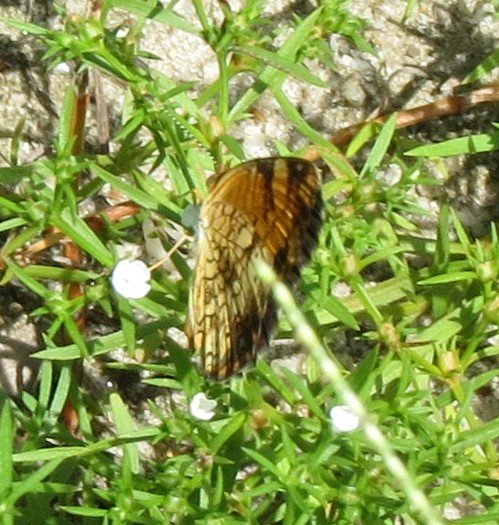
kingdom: Animalia
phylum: Arthropoda
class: Insecta
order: Lepidoptera
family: Nymphalidae
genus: Phyciodes
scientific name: Phyciodes tharos
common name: Pearl Crescent
